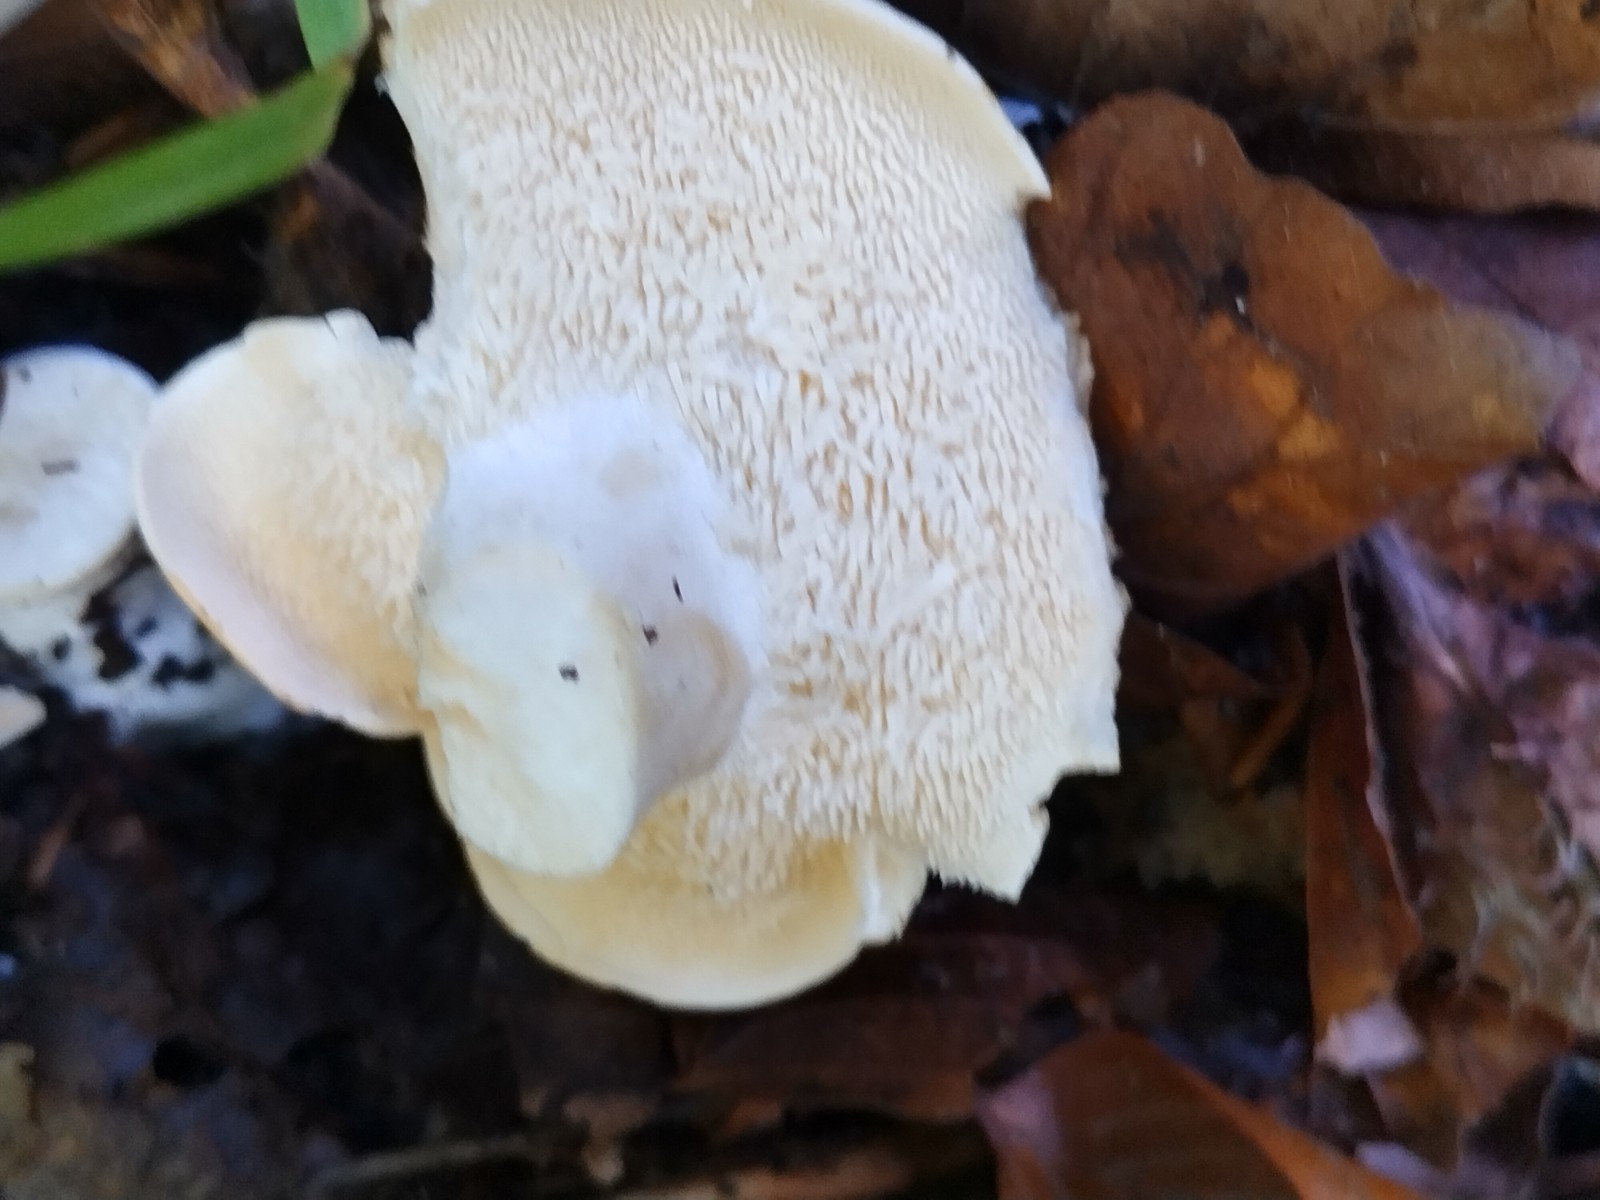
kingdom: Fungi
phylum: Basidiomycota
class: Agaricomycetes
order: Cantharellales
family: Hydnaceae
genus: Hydnum
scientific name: Hydnum repandum
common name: almindelig pigsvamp
